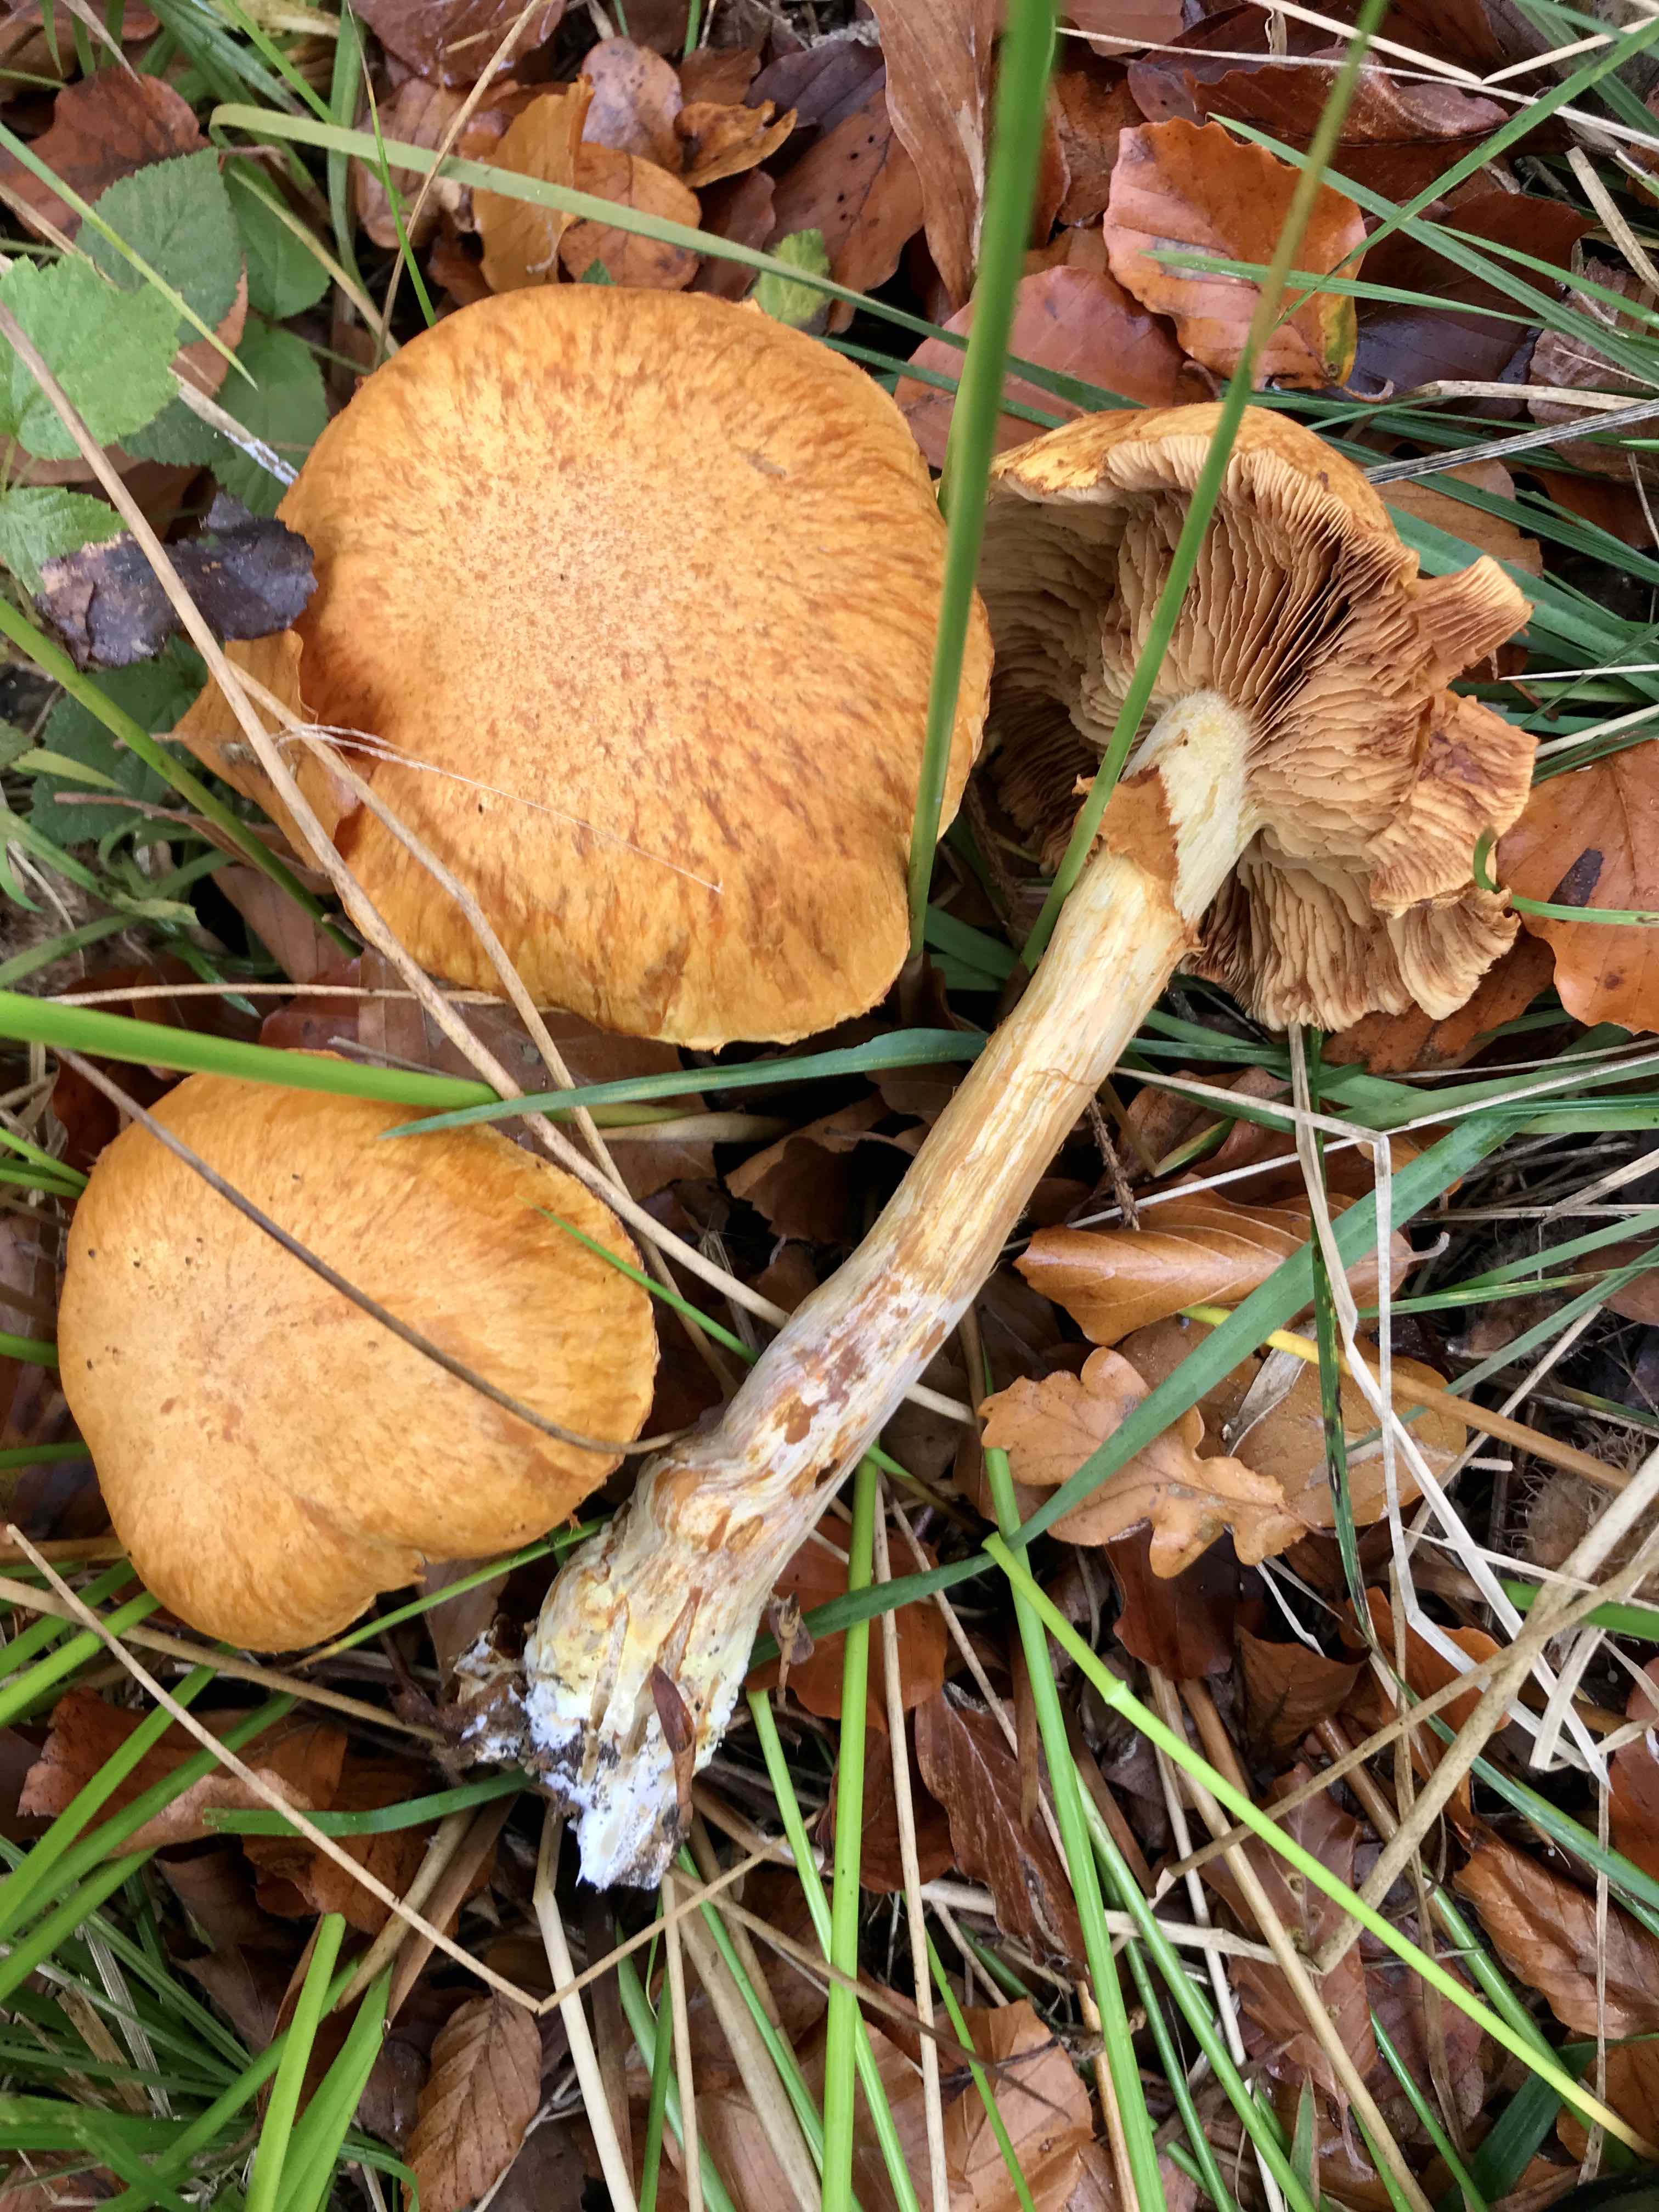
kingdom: Fungi
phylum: Basidiomycota
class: Agaricomycetes
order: Agaricales
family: Hymenogastraceae
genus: Gymnopilus
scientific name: Gymnopilus spectabilis
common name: fibret flammehat
